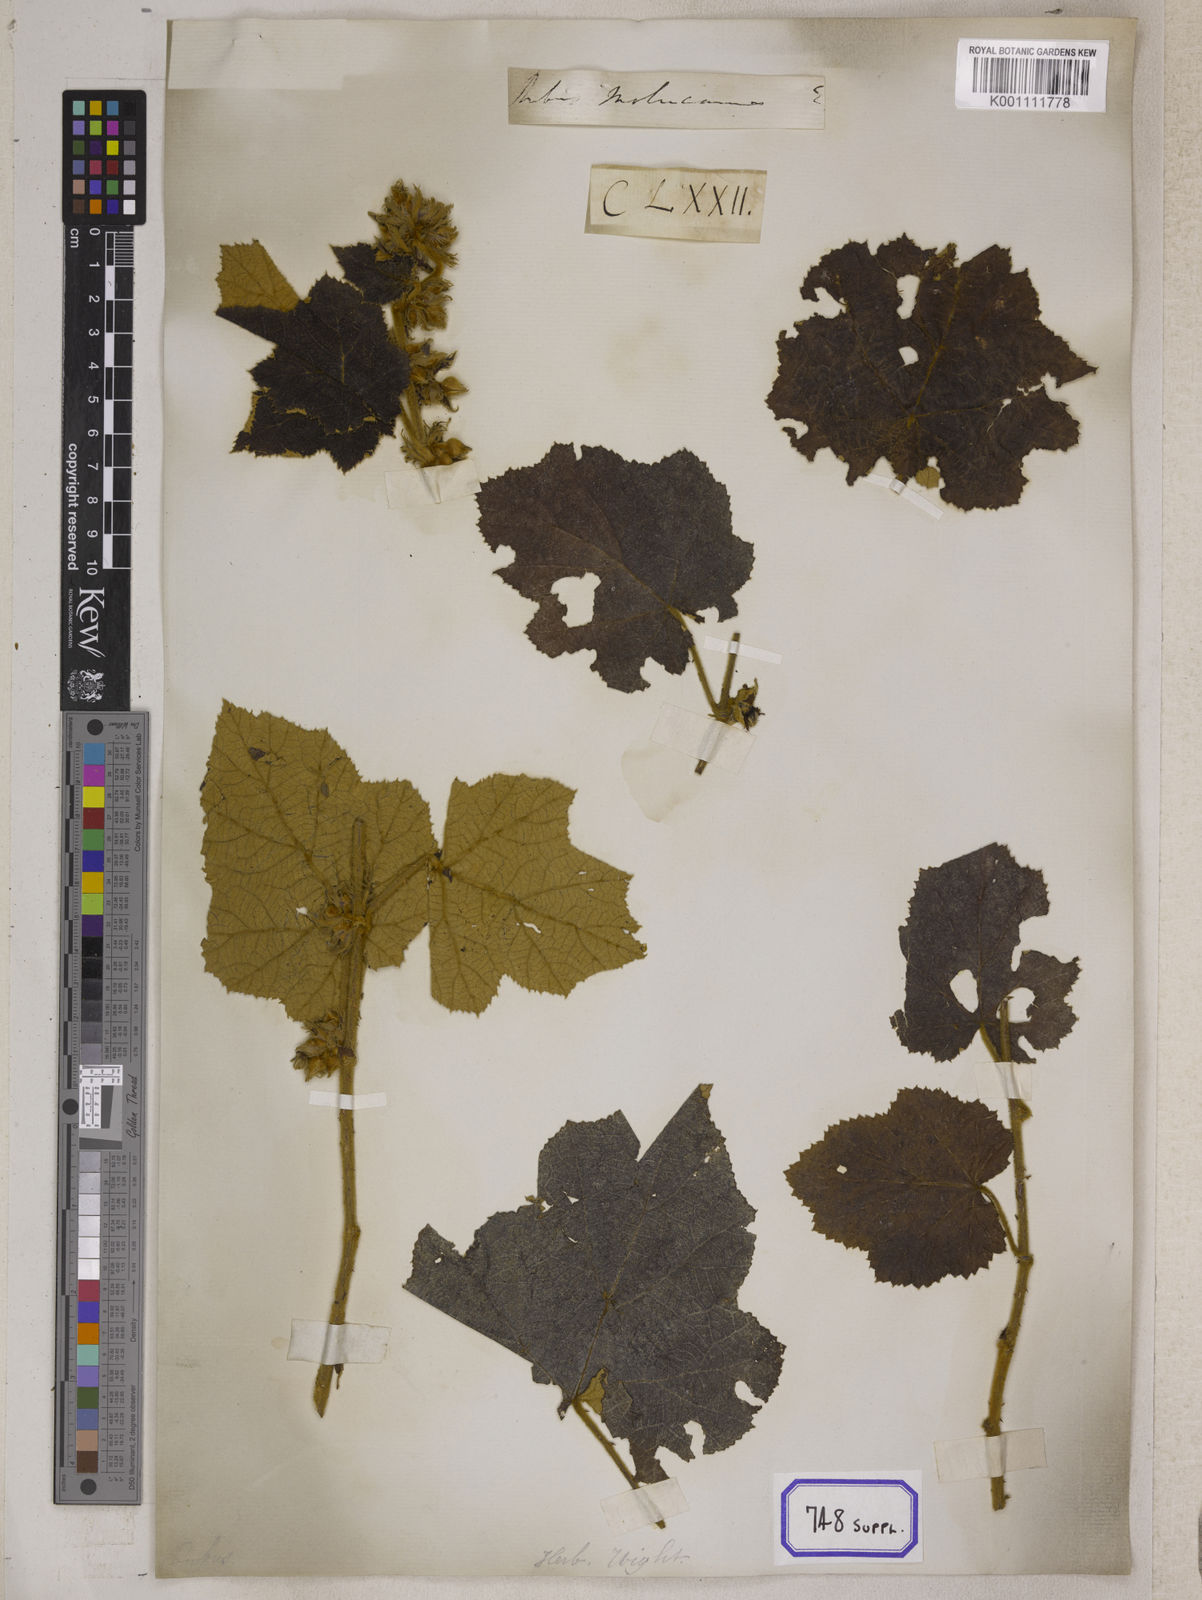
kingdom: Plantae
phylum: Tracheophyta
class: Magnoliopsida
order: Rosales
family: Rosaceae
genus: Rubus
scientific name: Rubus
